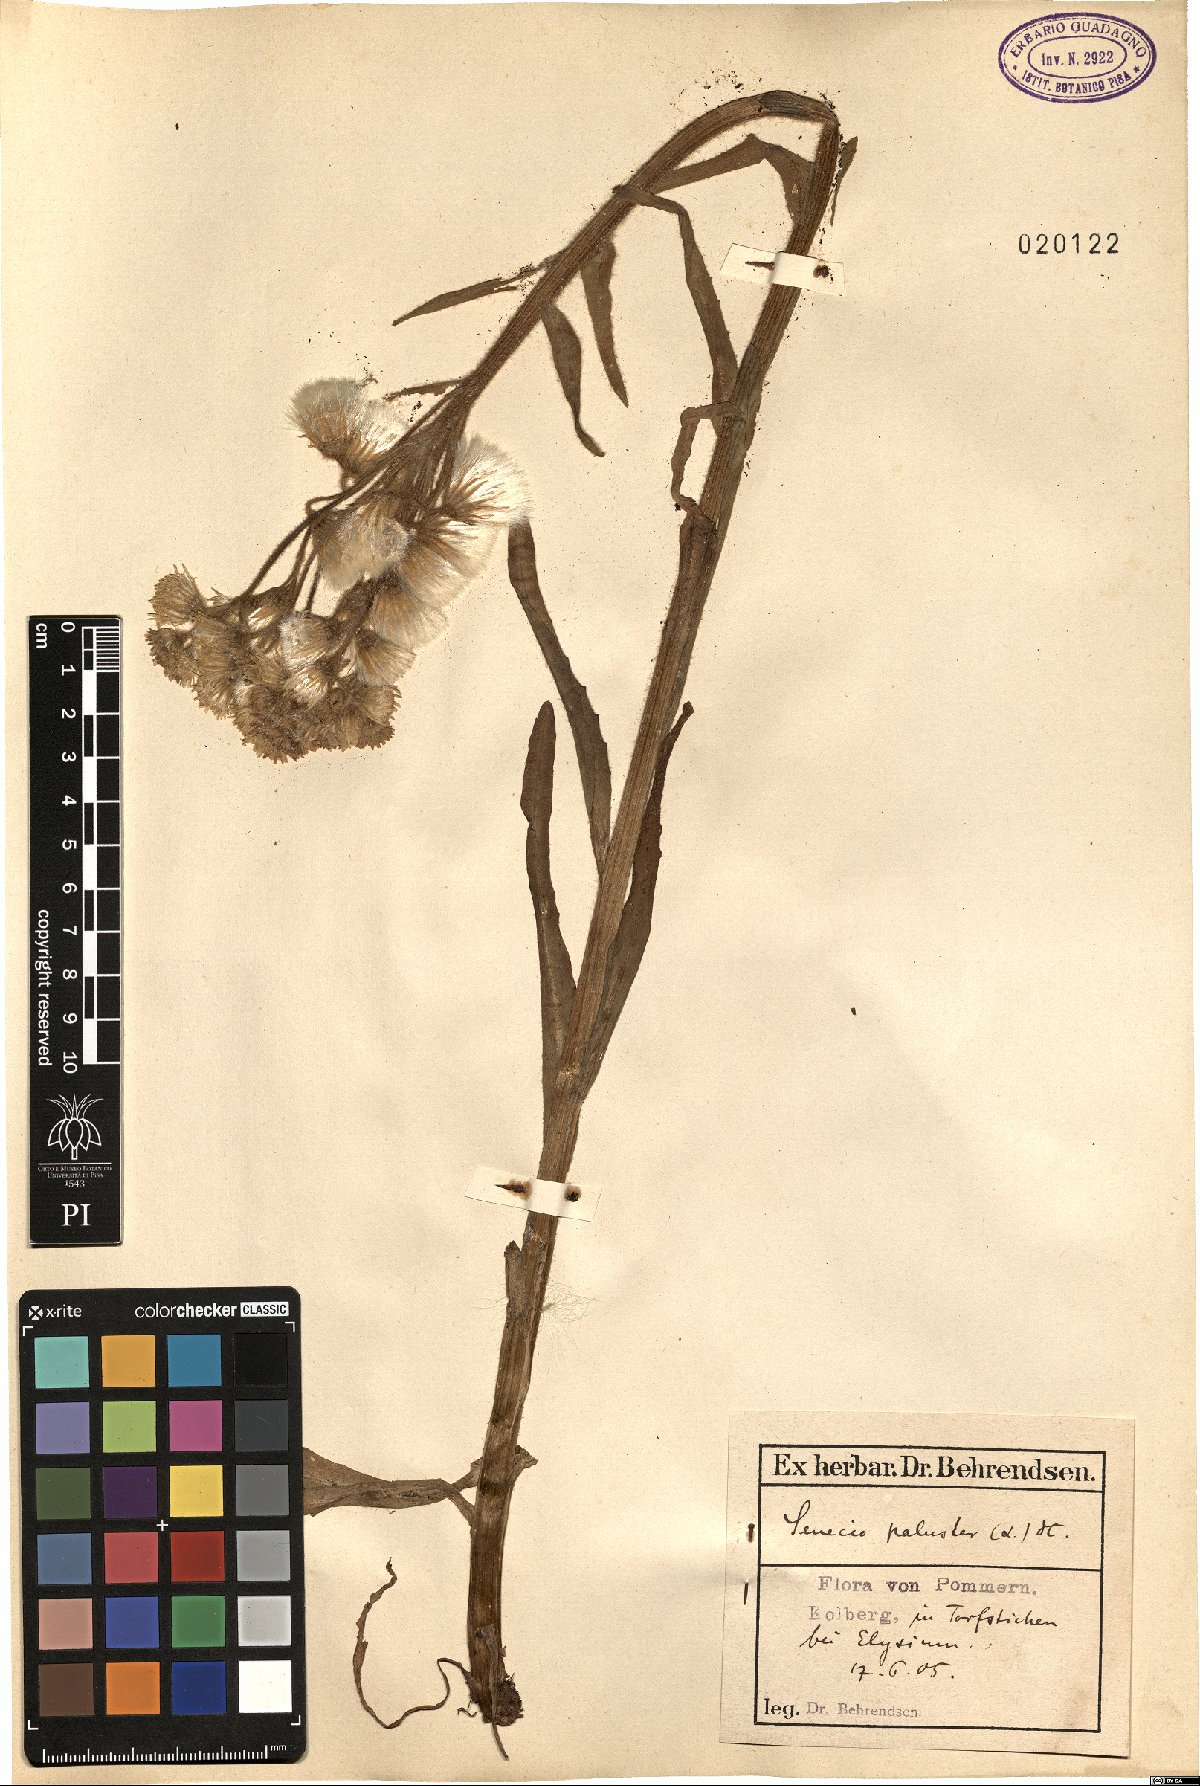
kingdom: Plantae
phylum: Tracheophyta
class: Magnoliopsida
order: Asterales
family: Asteraceae
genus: Tephroseris
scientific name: Tephroseris palustris
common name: Marsh fleawort
